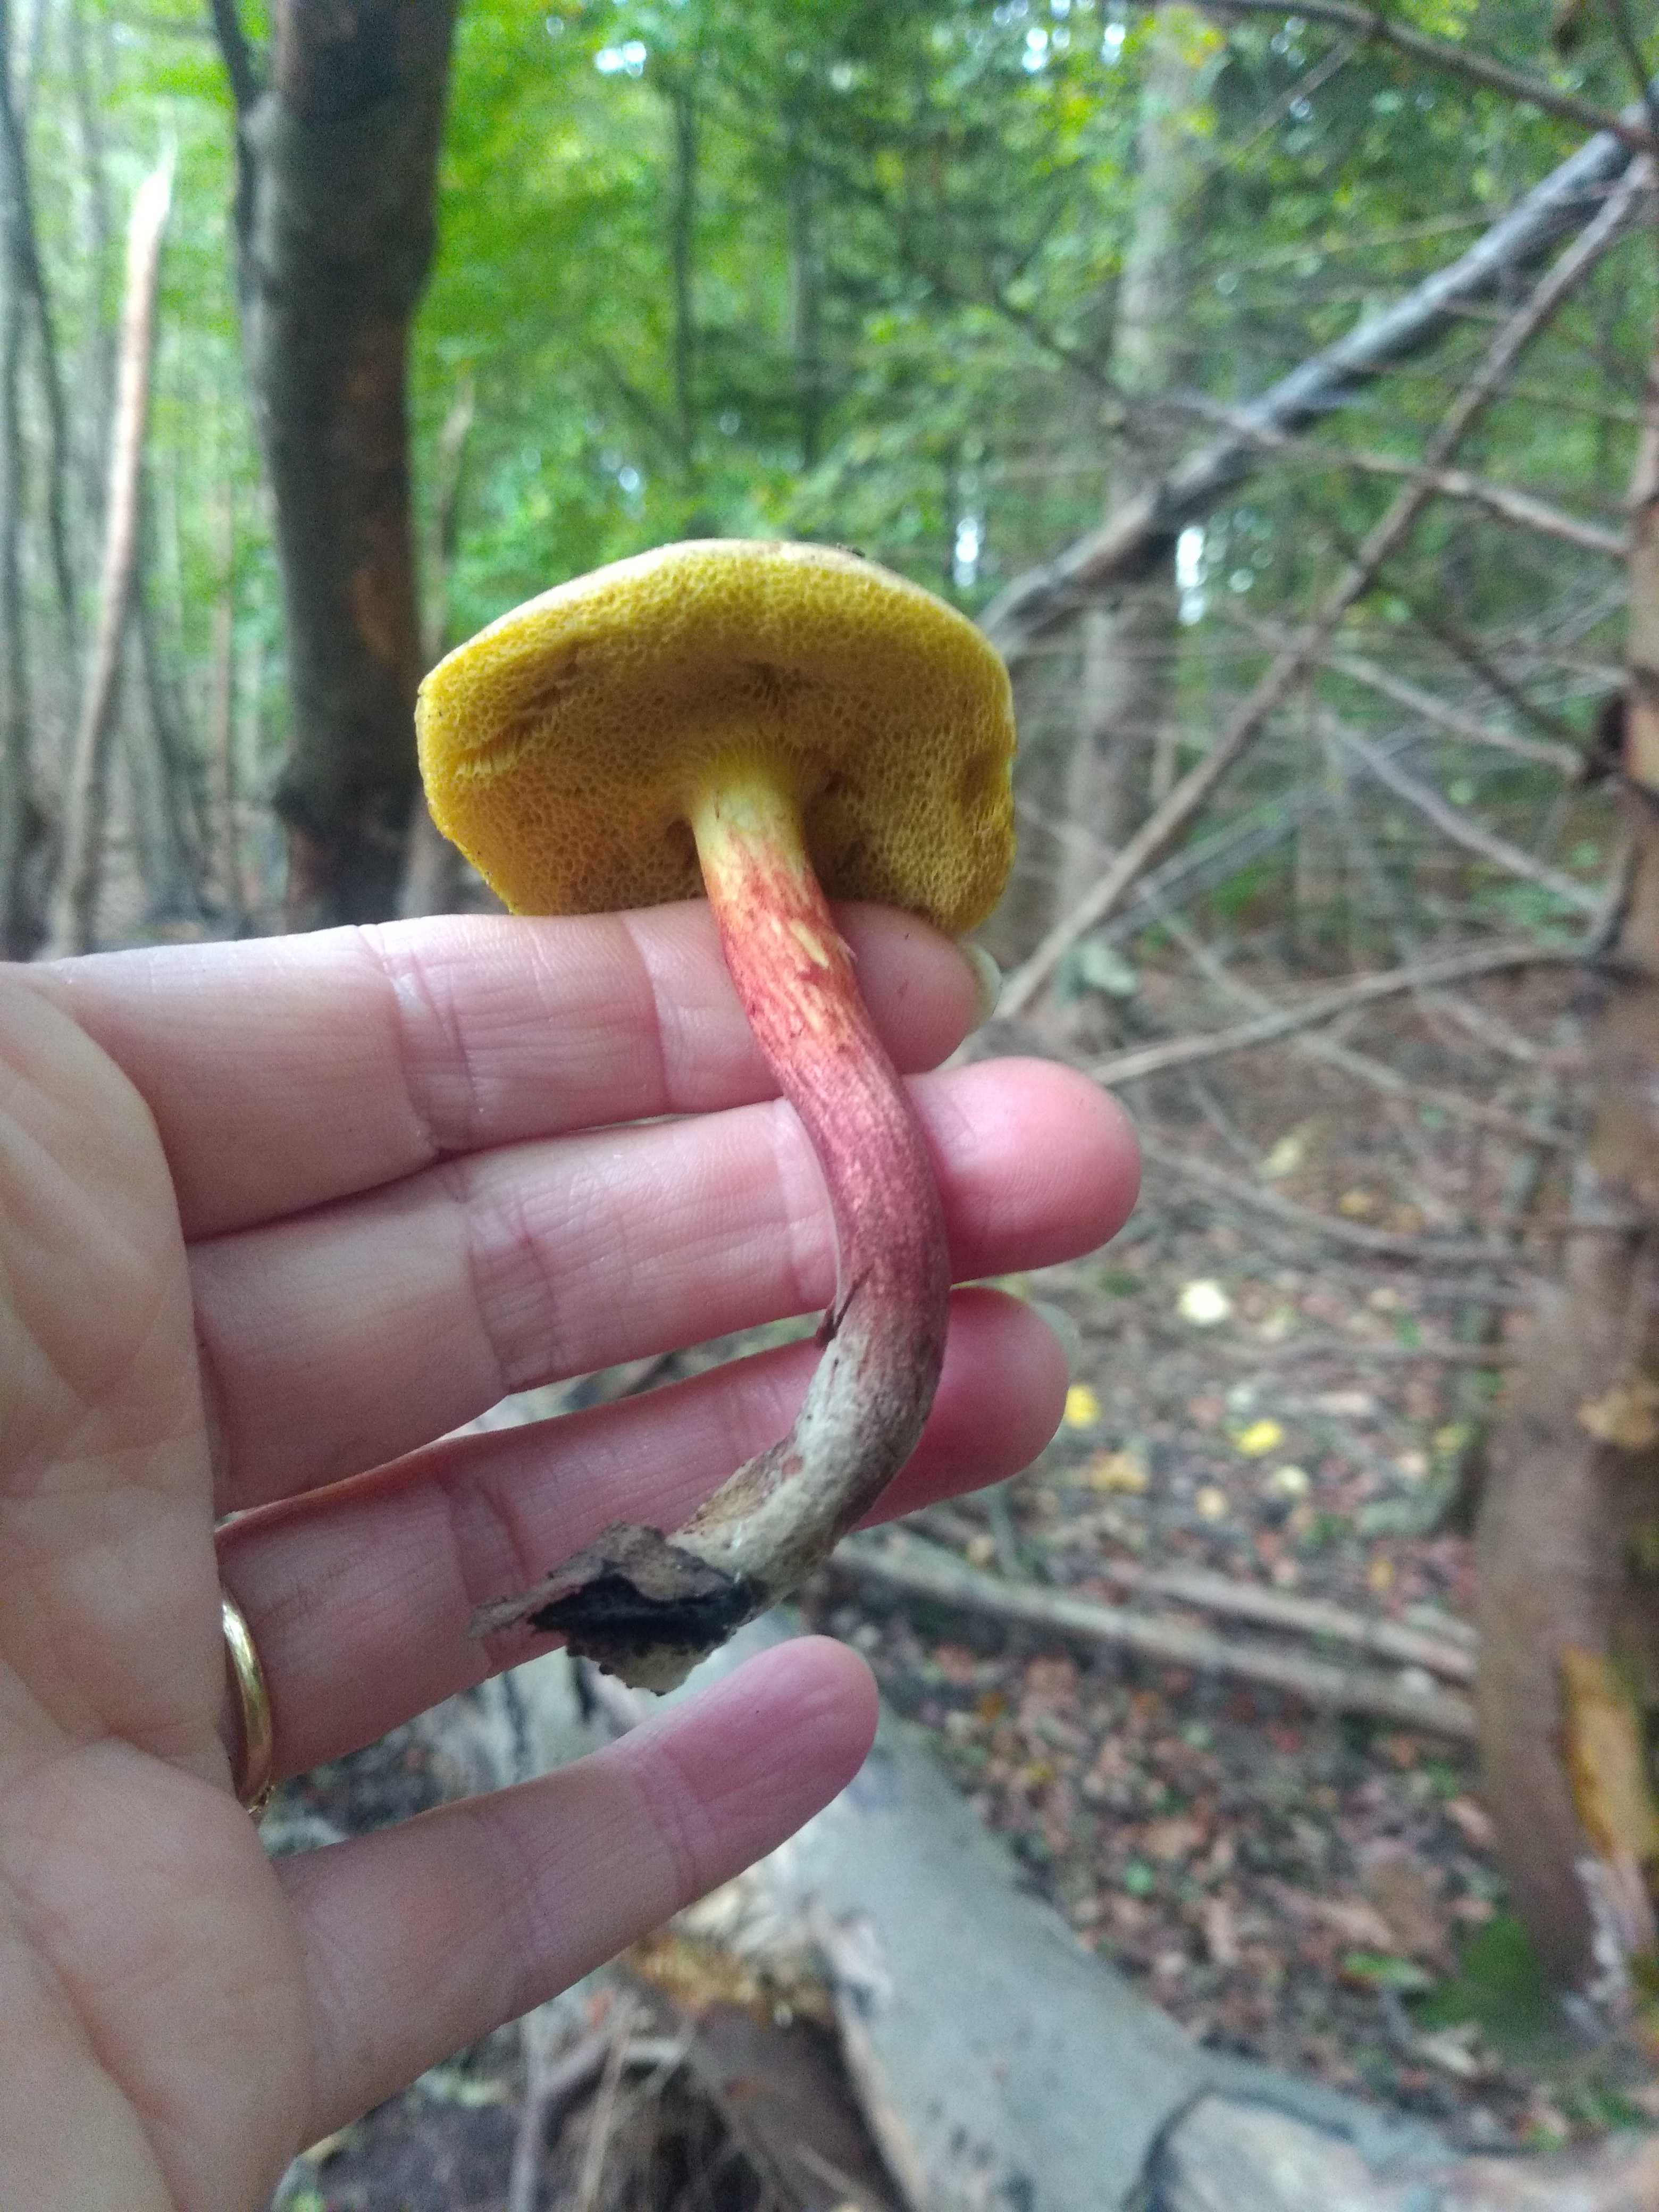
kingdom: Fungi
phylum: Basidiomycota
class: Agaricomycetes
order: Boletales
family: Boletaceae
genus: Xerocomellus
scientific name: Xerocomellus chrysenteron
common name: rødsprukken rørhat
